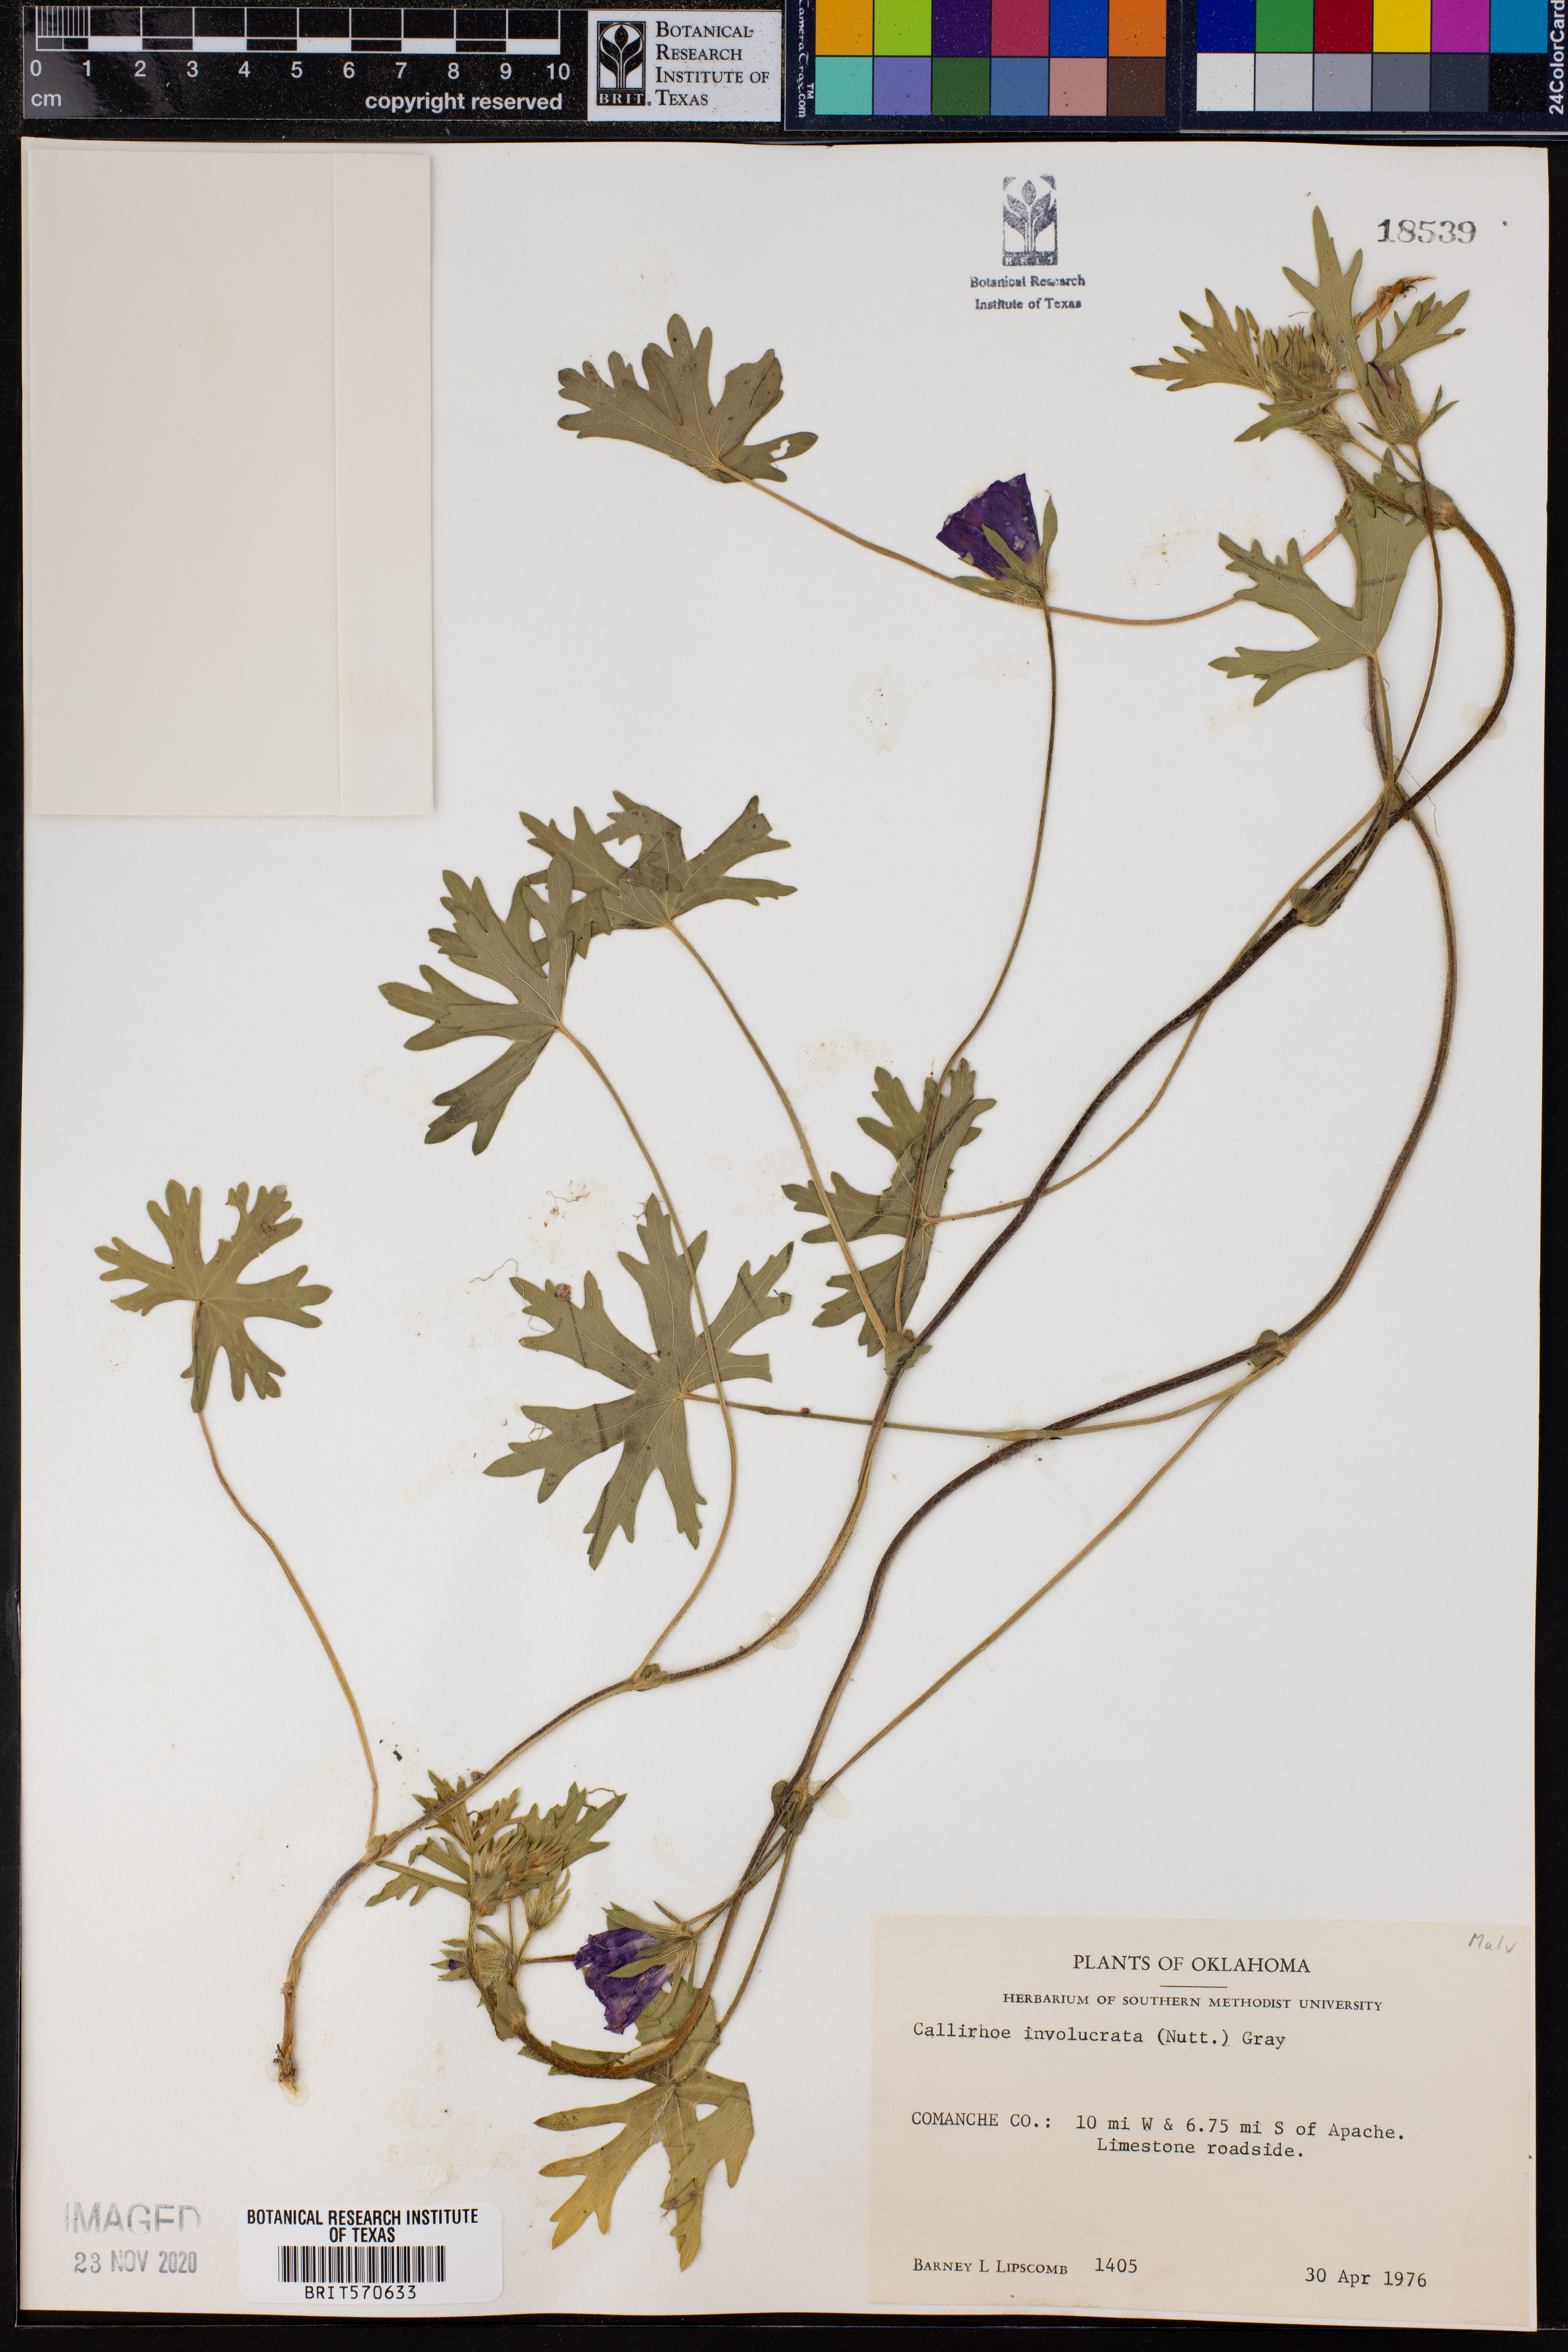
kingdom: Plantae
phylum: Tracheophyta
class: Magnoliopsida
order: Malvales
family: Malvaceae
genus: Callirhoe
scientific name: Callirhoe involucrata
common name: Purple poppy-mallow
